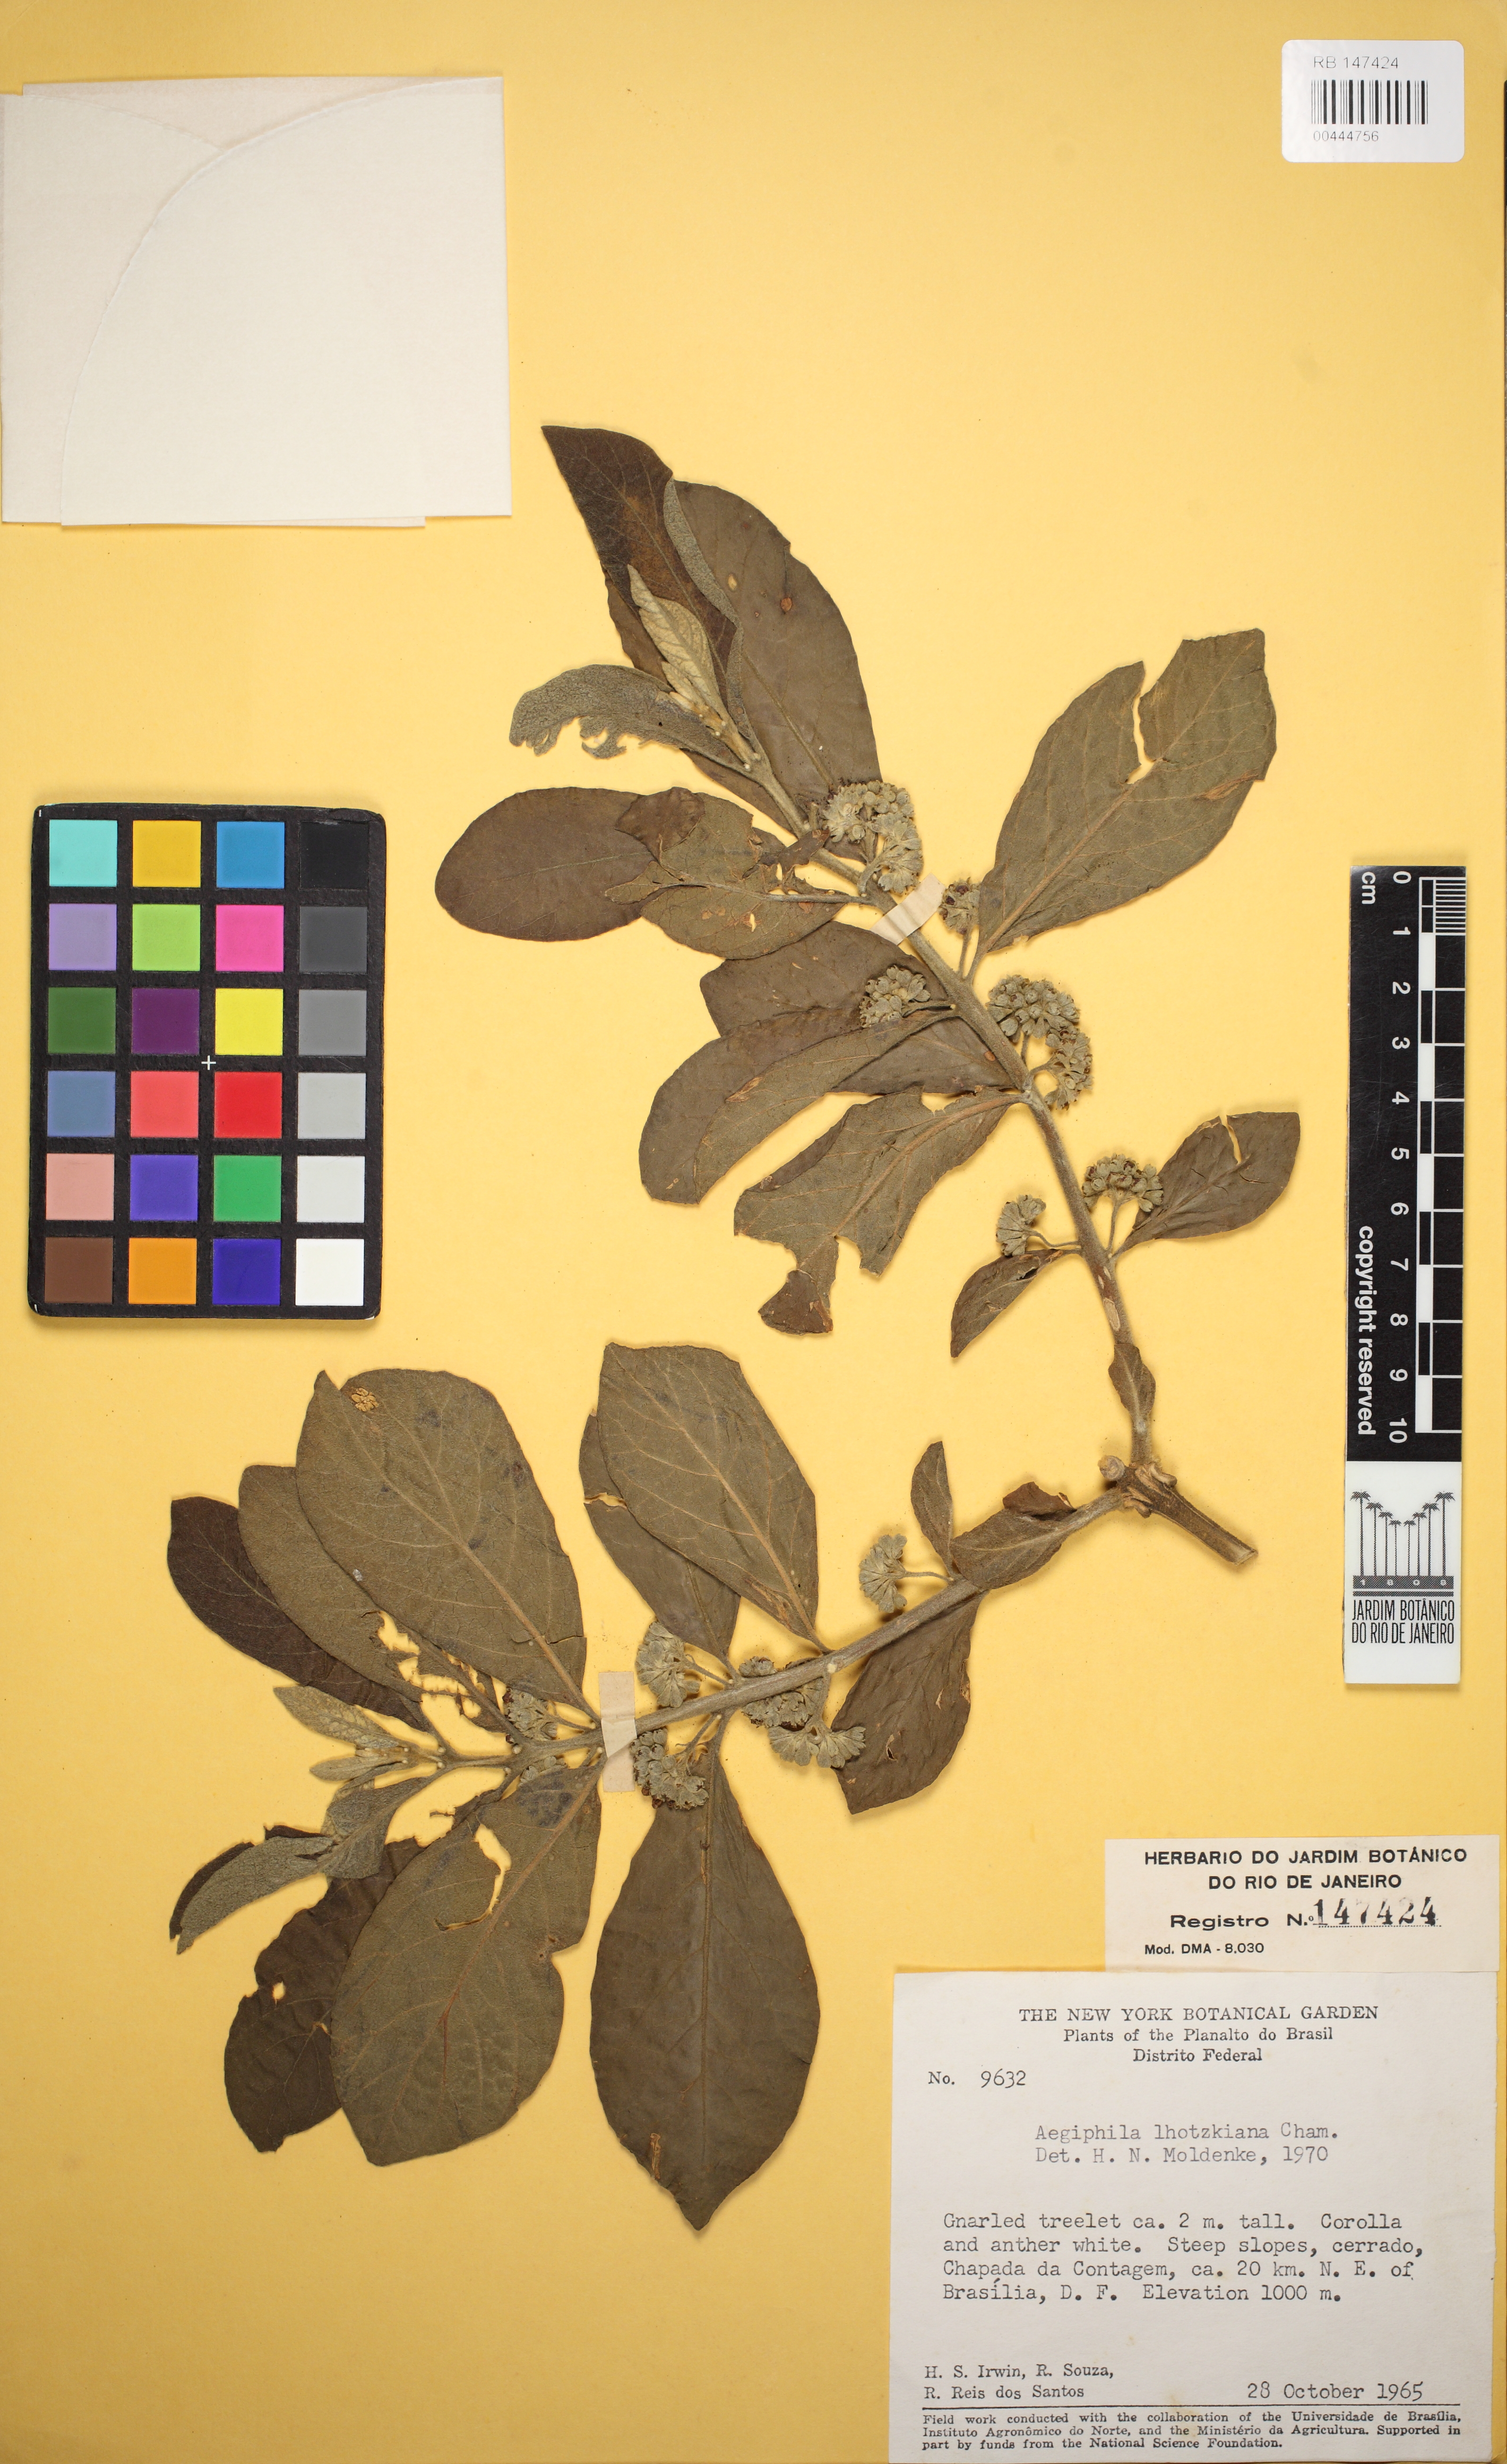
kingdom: Plantae
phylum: Tracheophyta
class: Magnoliopsida
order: Lamiales
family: Lamiaceae
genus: Aegiphila
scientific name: Aegiphila lhotskiana
